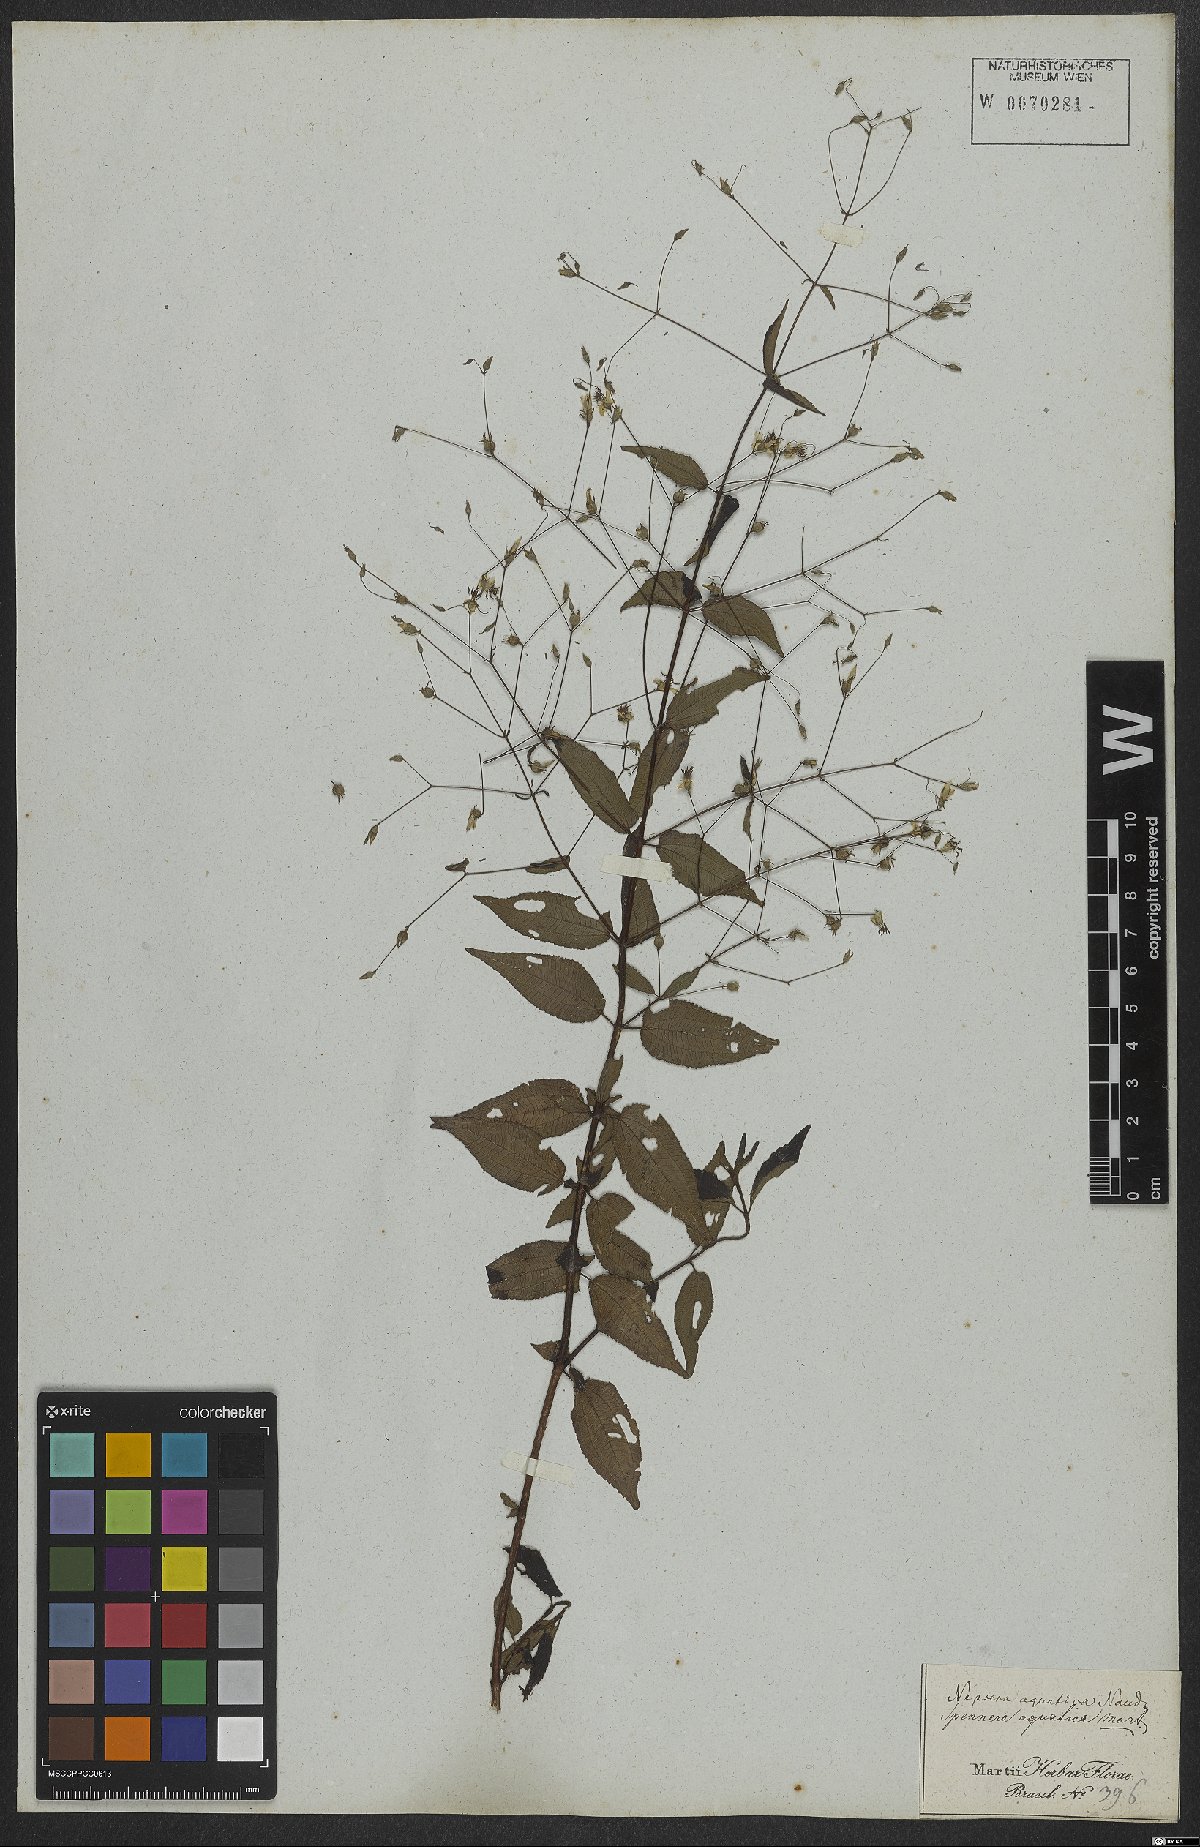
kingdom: Plantae
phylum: Tracheophyta
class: Magnoliopsida
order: Myrtales
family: Melastomataceae
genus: Nepsera
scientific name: Nepsera aquatica
